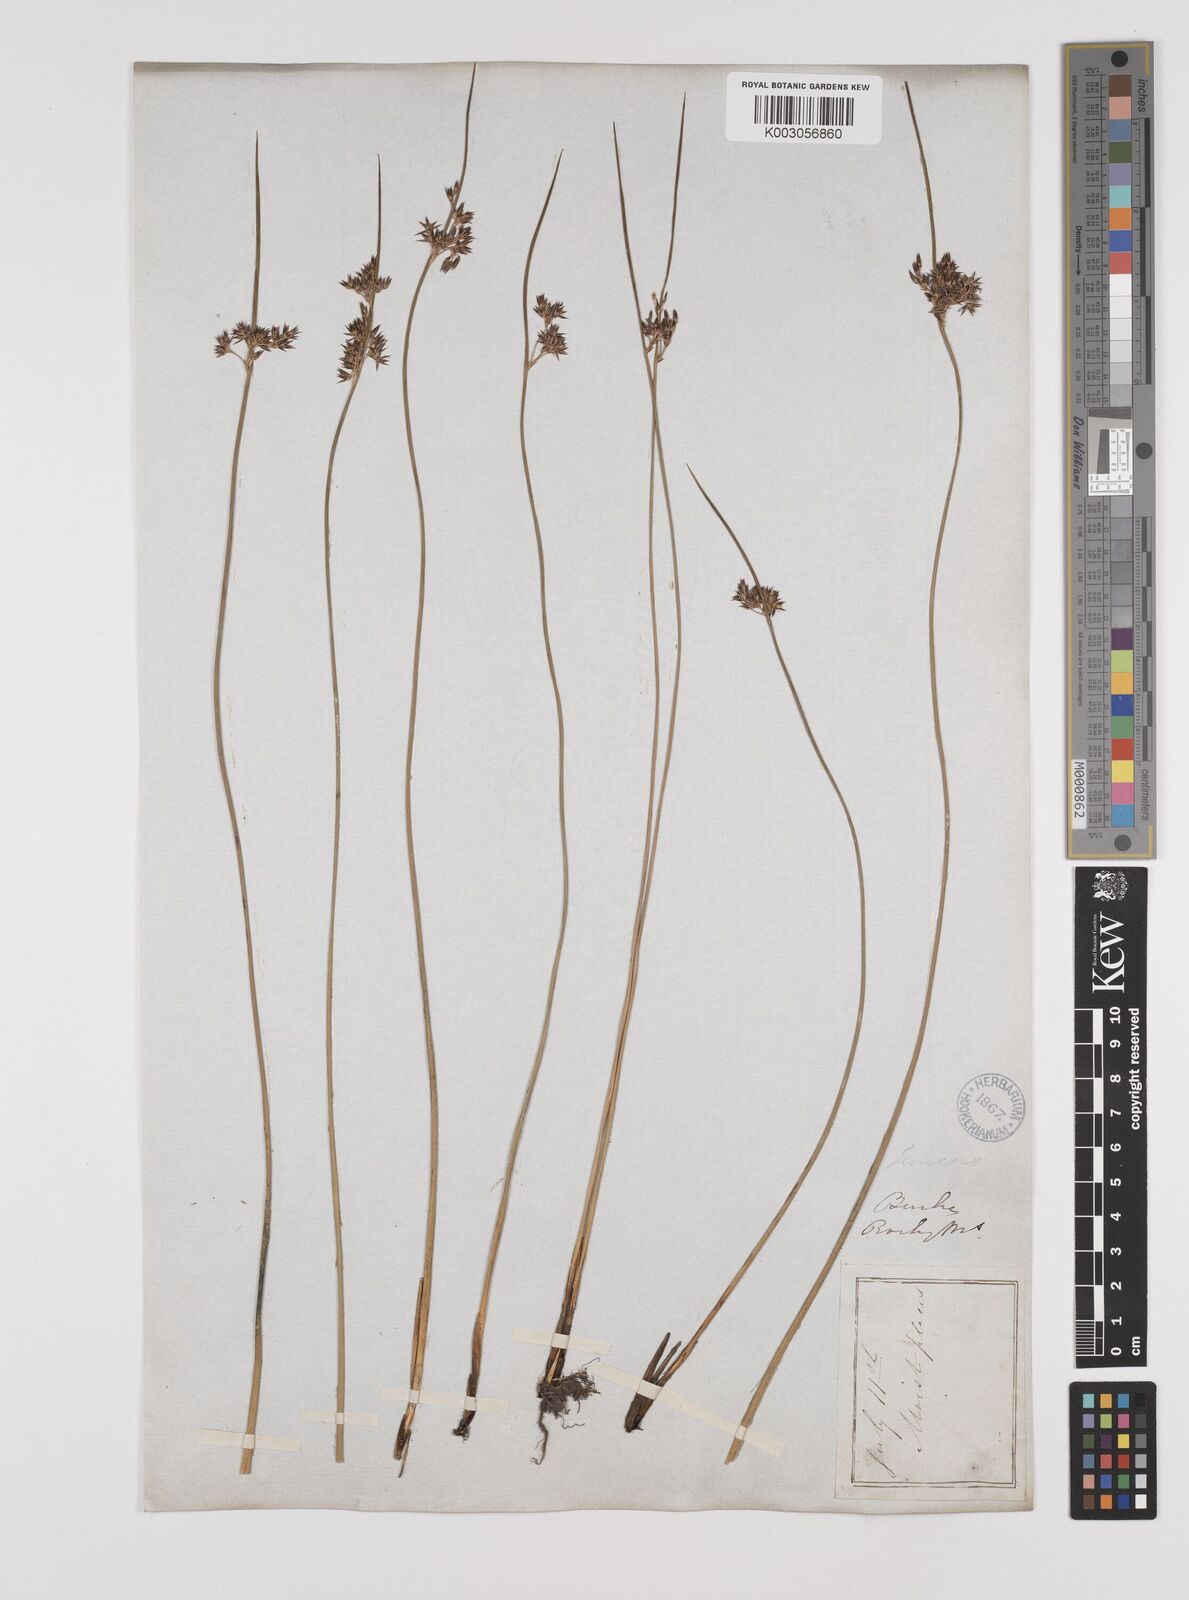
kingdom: Plantae
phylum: Tracheophyta
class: Liliopsida
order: Poales
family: Juncaceae
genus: Juncus
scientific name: Juncus balticus
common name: Baltic rush
